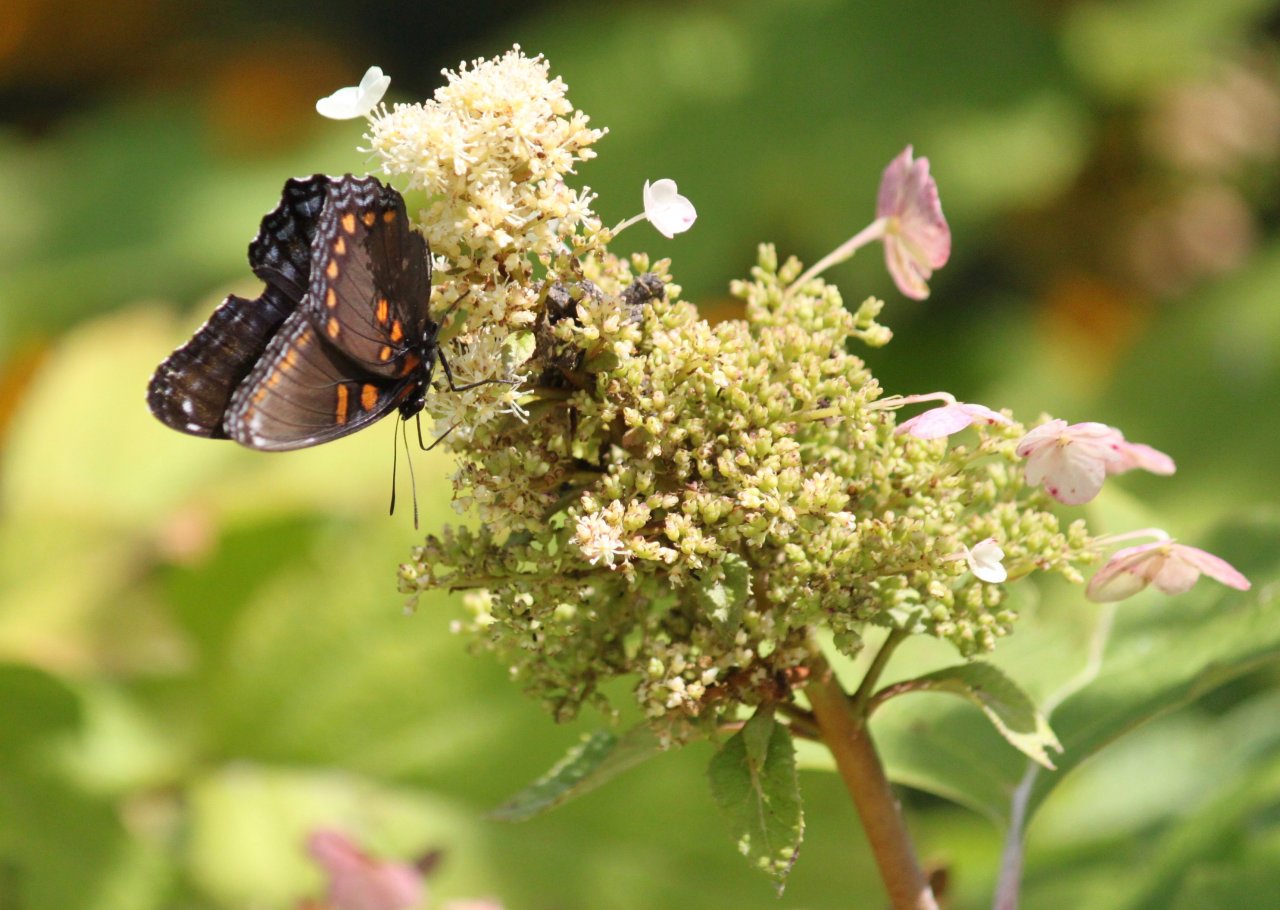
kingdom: Animalia
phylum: Arthropoda
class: Insecta
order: Lepidoptera
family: Nymphalidae
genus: Limenitis
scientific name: Limenitis astyanax
